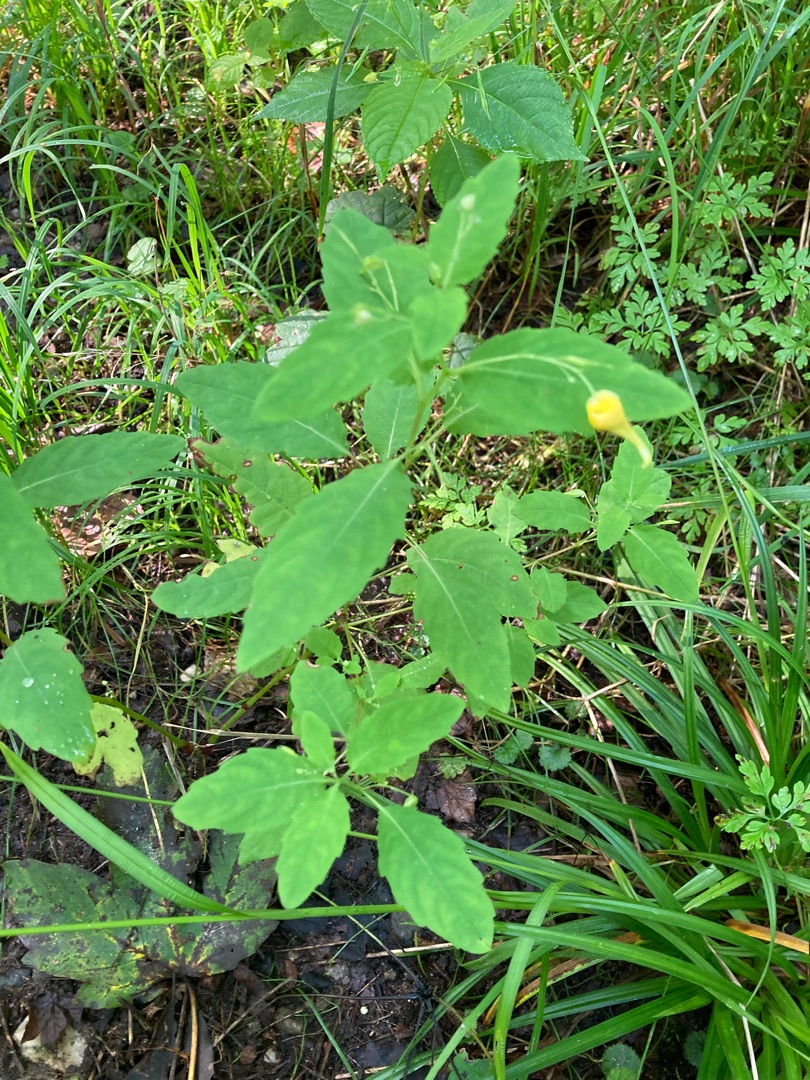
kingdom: Plantae
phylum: Tracheophyta
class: Magnoliopsida
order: Ericales
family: Balsaminaceae
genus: Impatiens
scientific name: Impatiens noli-tangere
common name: Spring-balsamin
